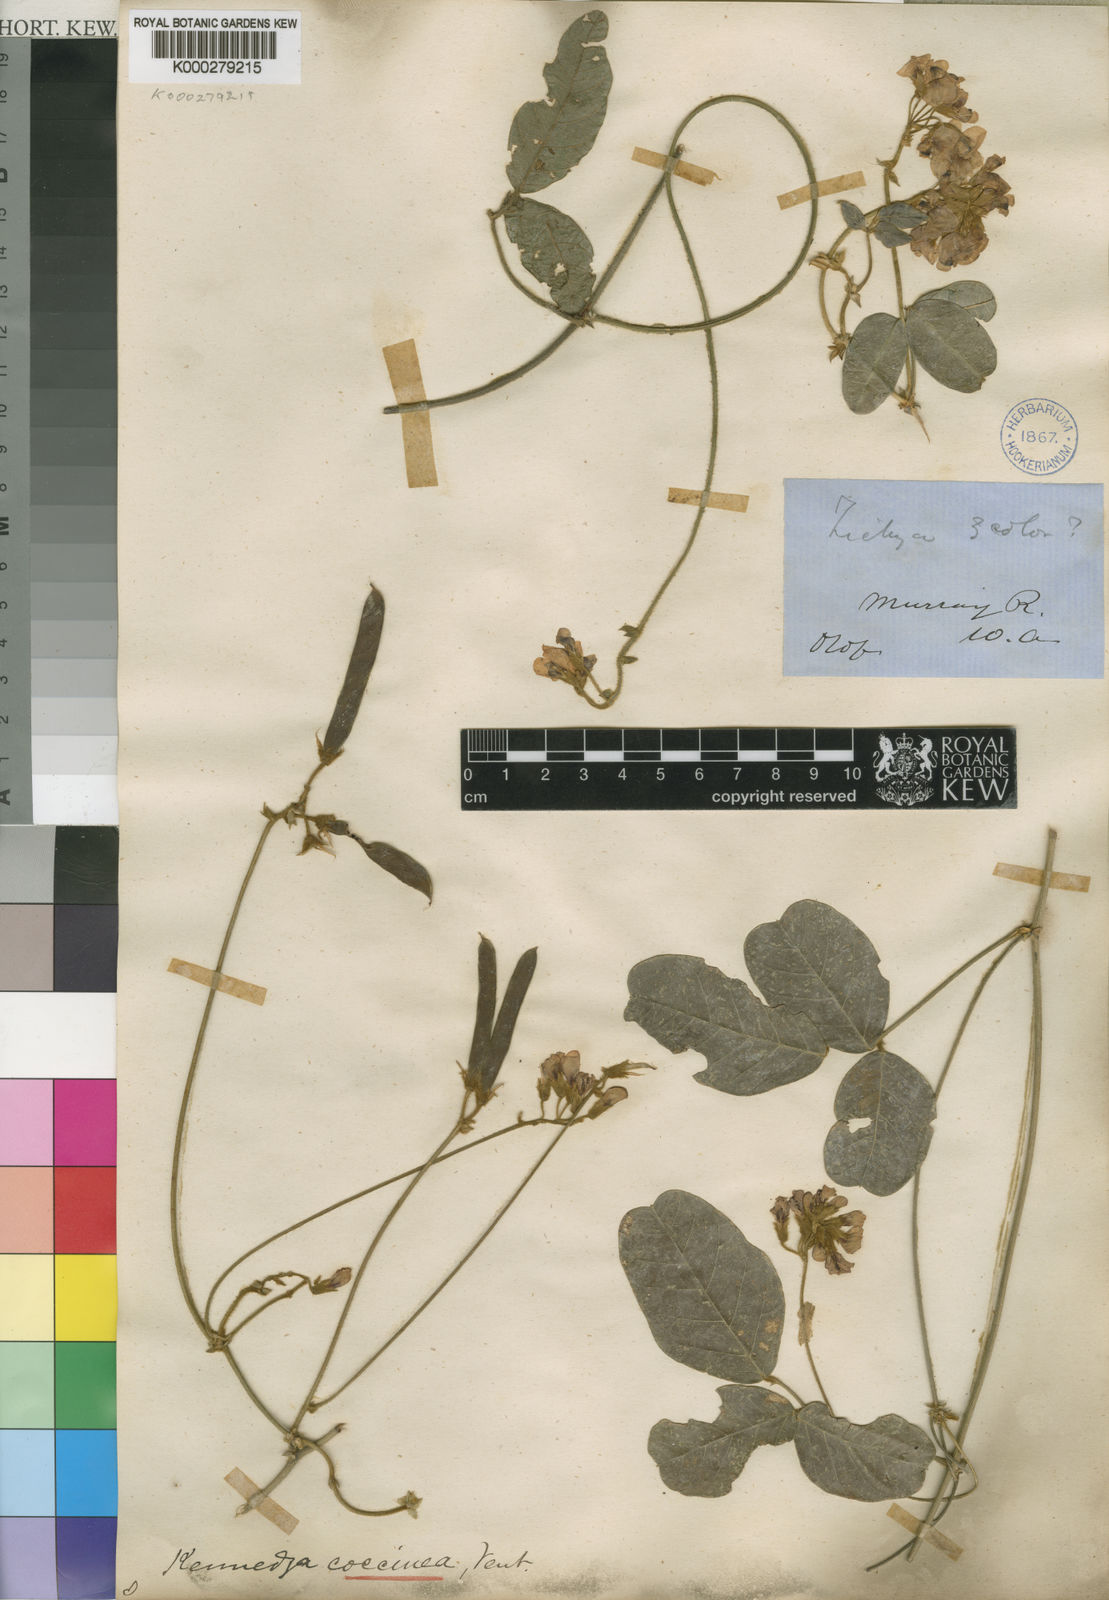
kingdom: Plantae
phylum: Tracheophyta
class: Magnoliopsida
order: Fabales
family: Fabaceae
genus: Kennedia
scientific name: Kennedia coccinea
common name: Coralvine
